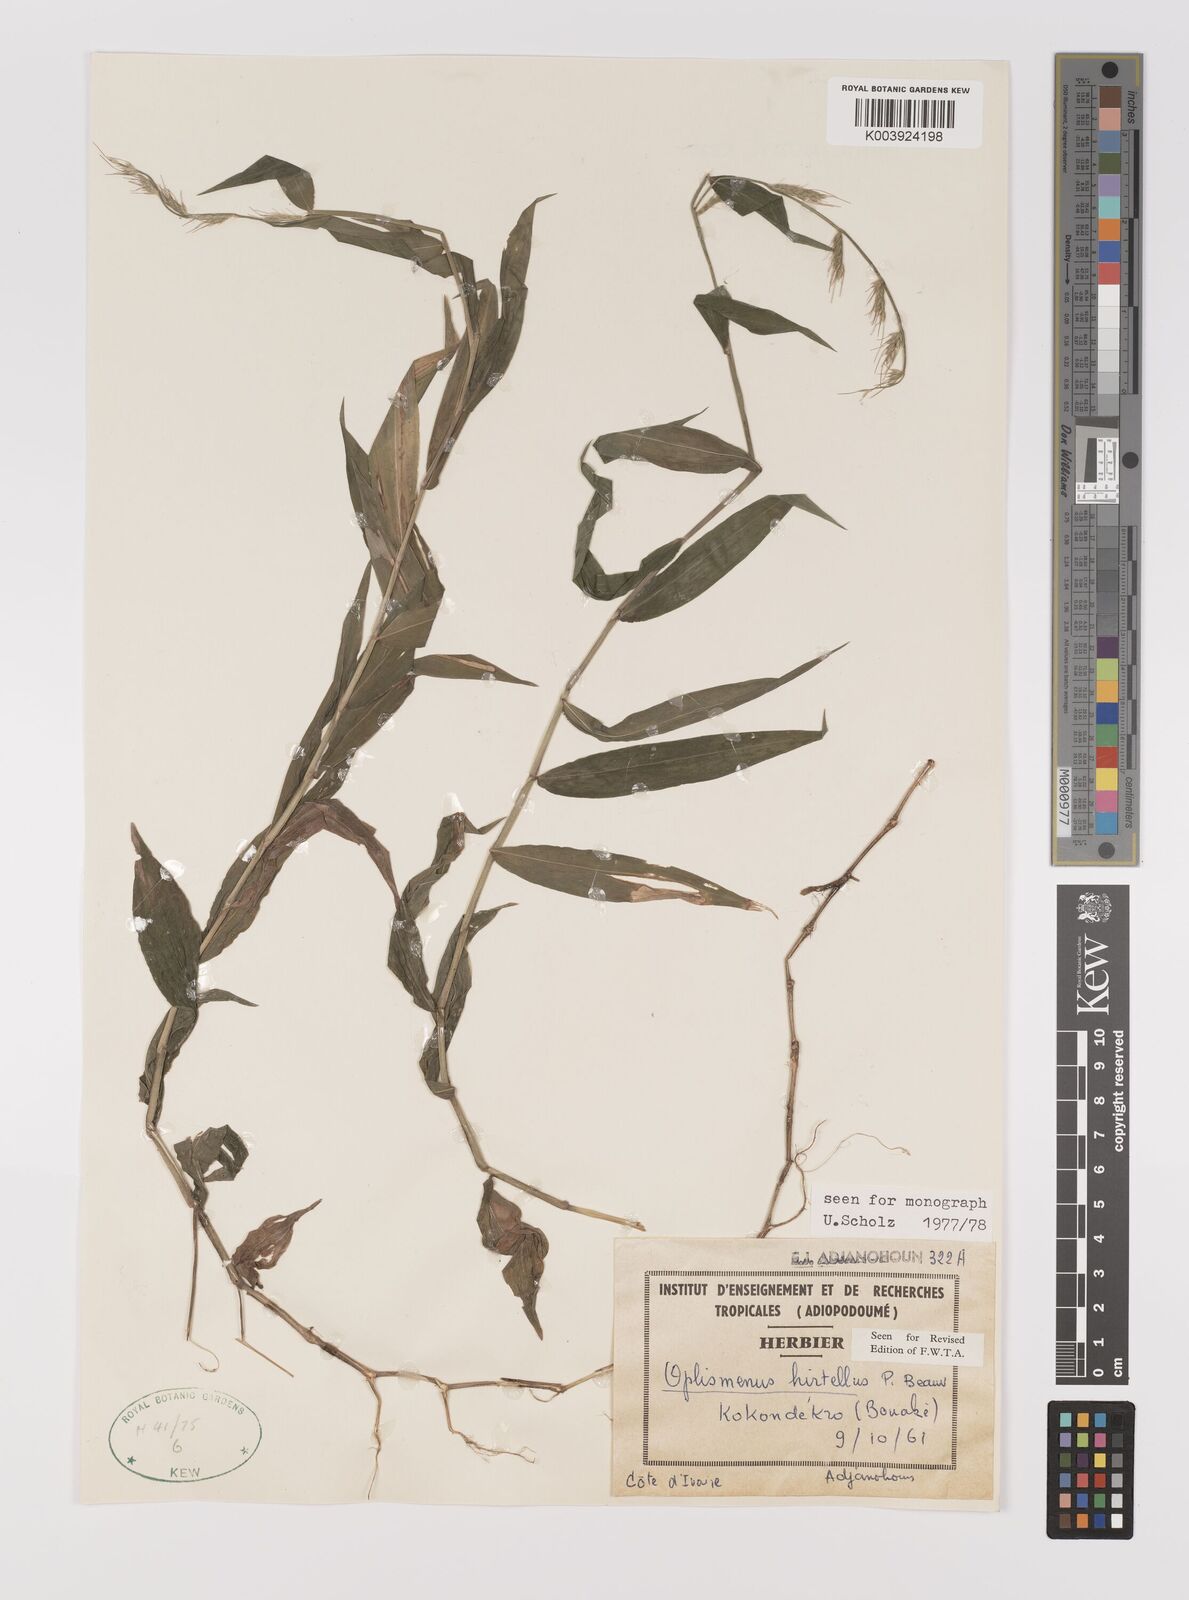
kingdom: Plantae
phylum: Tracheophyta
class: Liliopsida
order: Poales
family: Poaceae
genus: Oplismenus
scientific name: Oplismenus hirtellus
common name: Basketgrass
